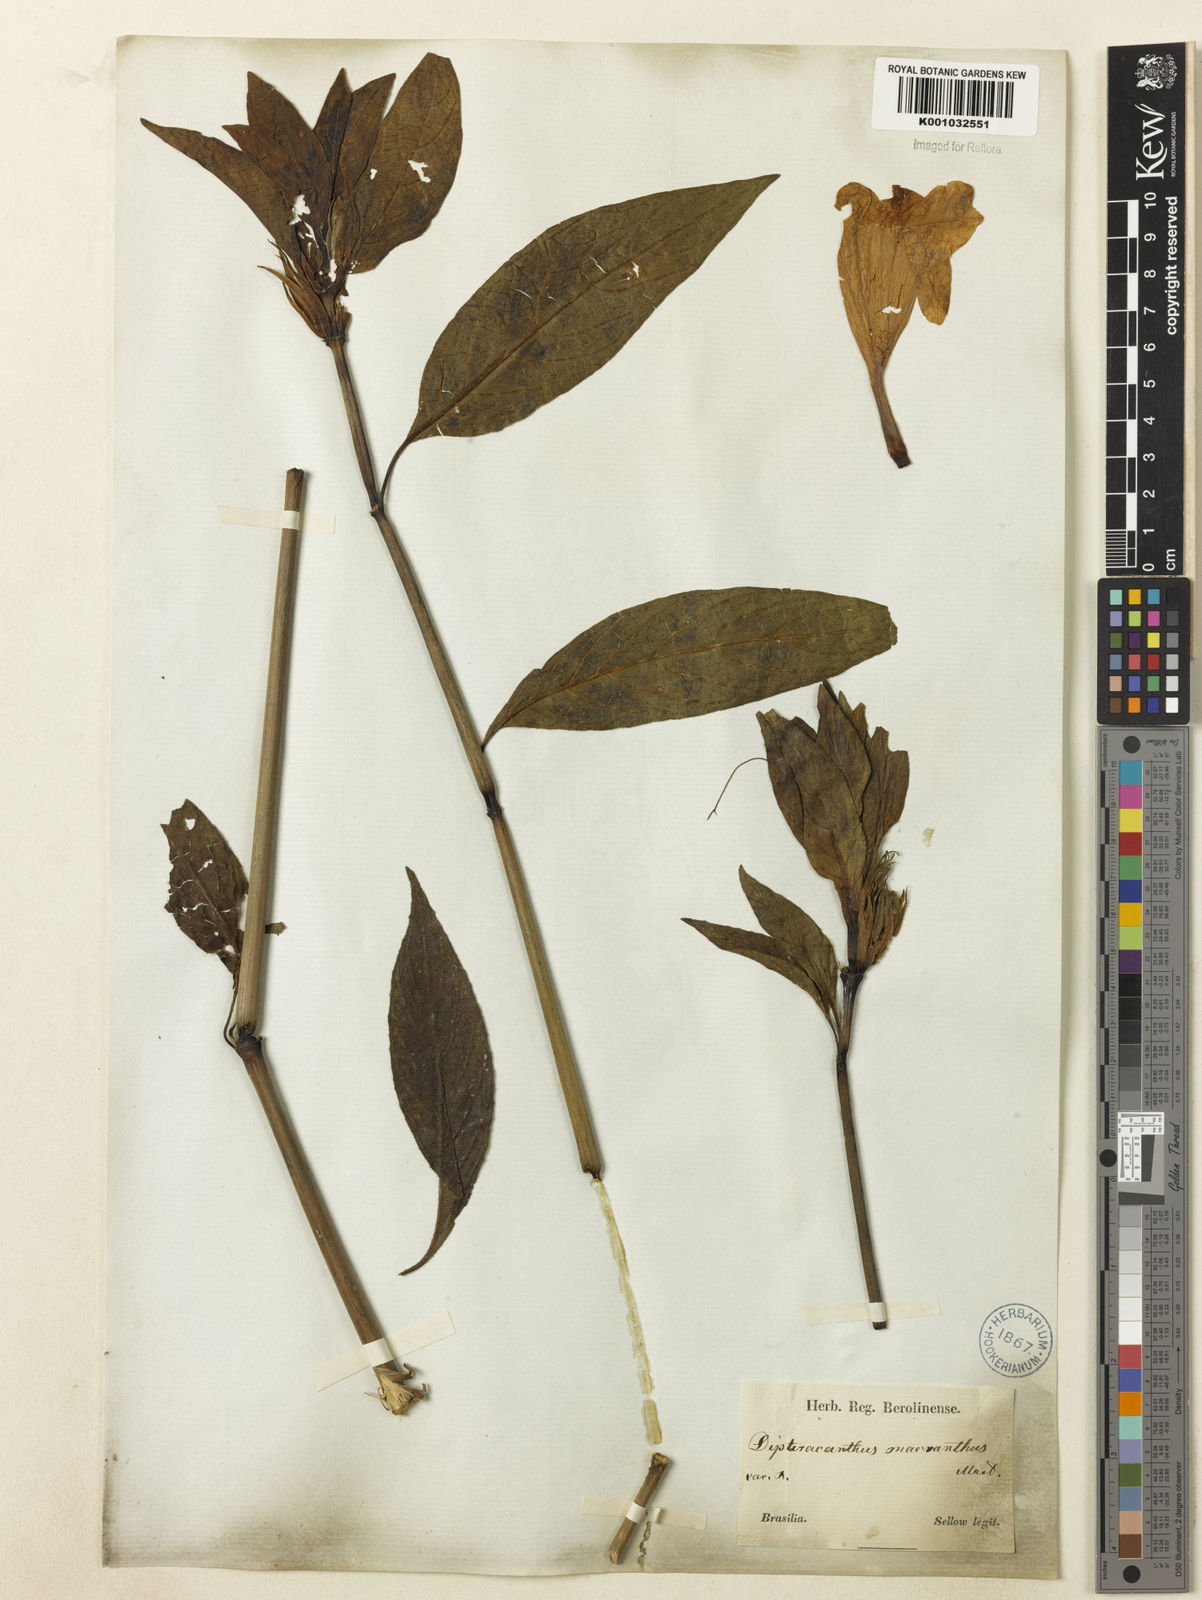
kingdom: Plantae
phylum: Tracheophyta
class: Magnoliopsida
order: Lamiales
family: Acanthaceae
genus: Ruellia
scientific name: Ruellia
